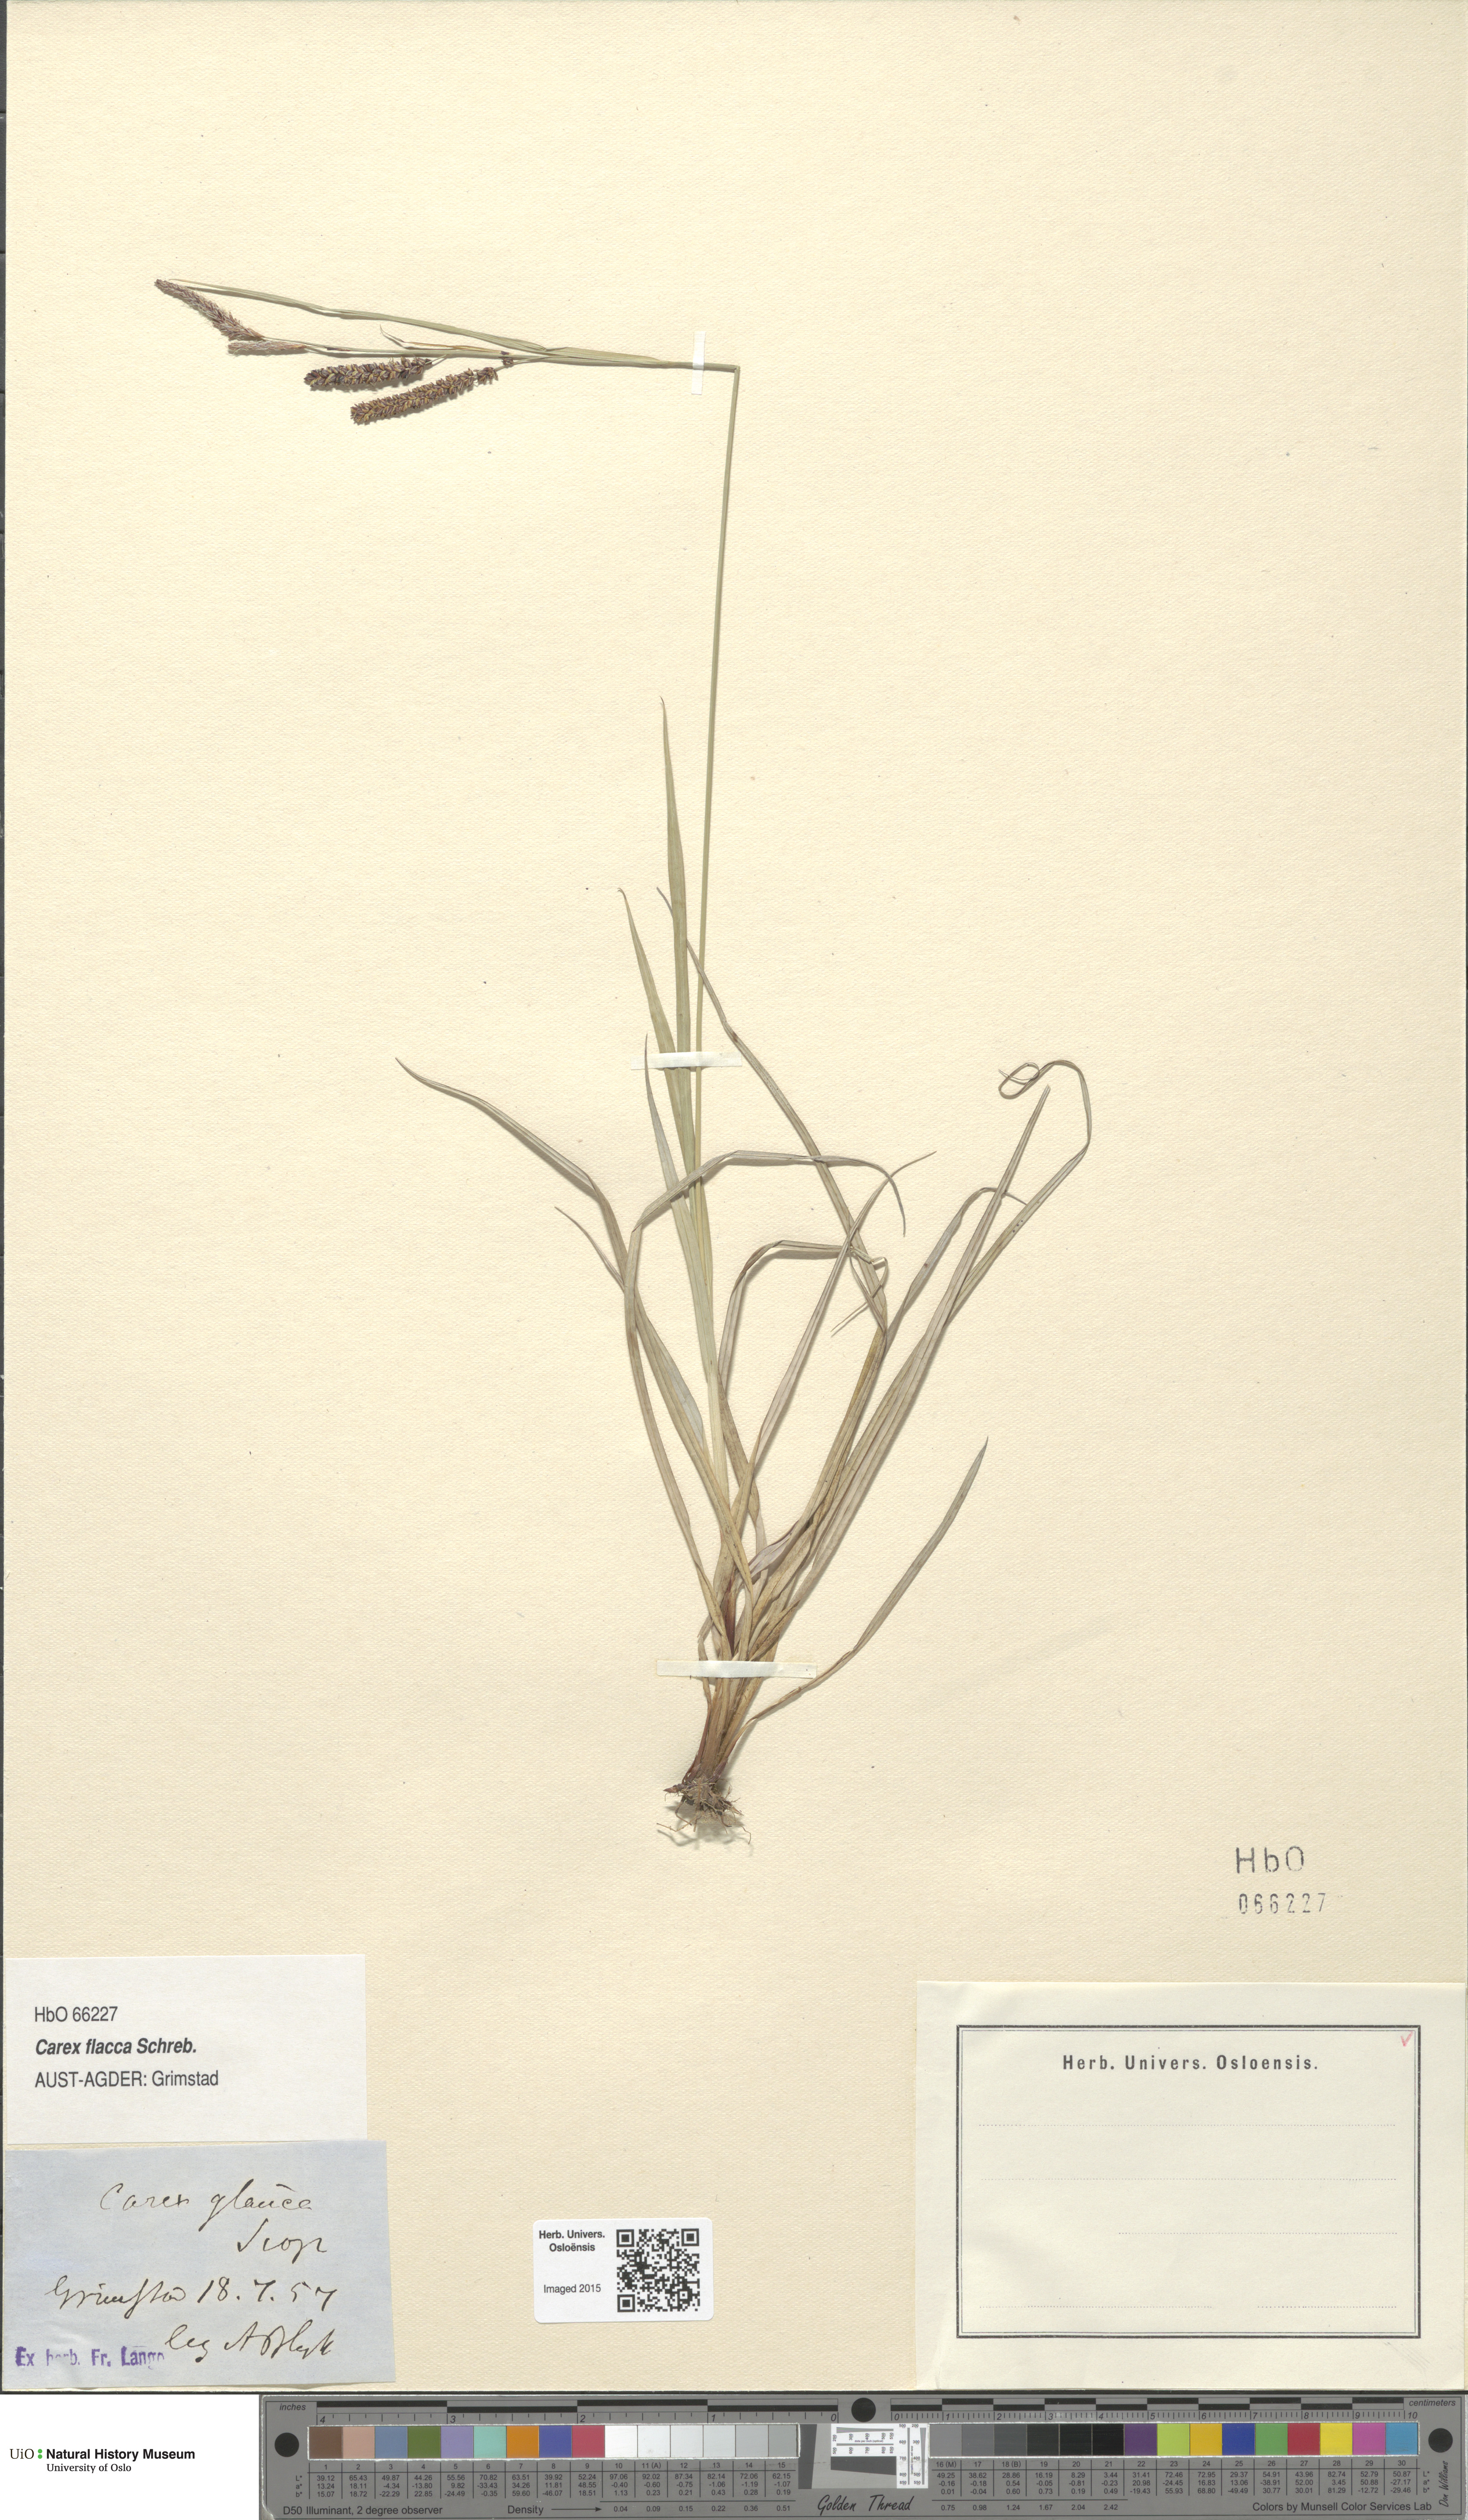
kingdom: Plantae
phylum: Tracheophyta
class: Liliopsida
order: Poales
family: Cyperaceae
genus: Carex
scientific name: Carex flacca
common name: Glaucous sedge
